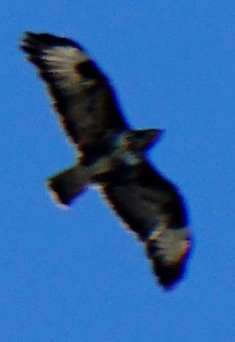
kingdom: Animalia
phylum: Chordata
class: Aves
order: Accipitriformes
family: Accipitridae
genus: Buteo
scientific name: Buteo buteo
